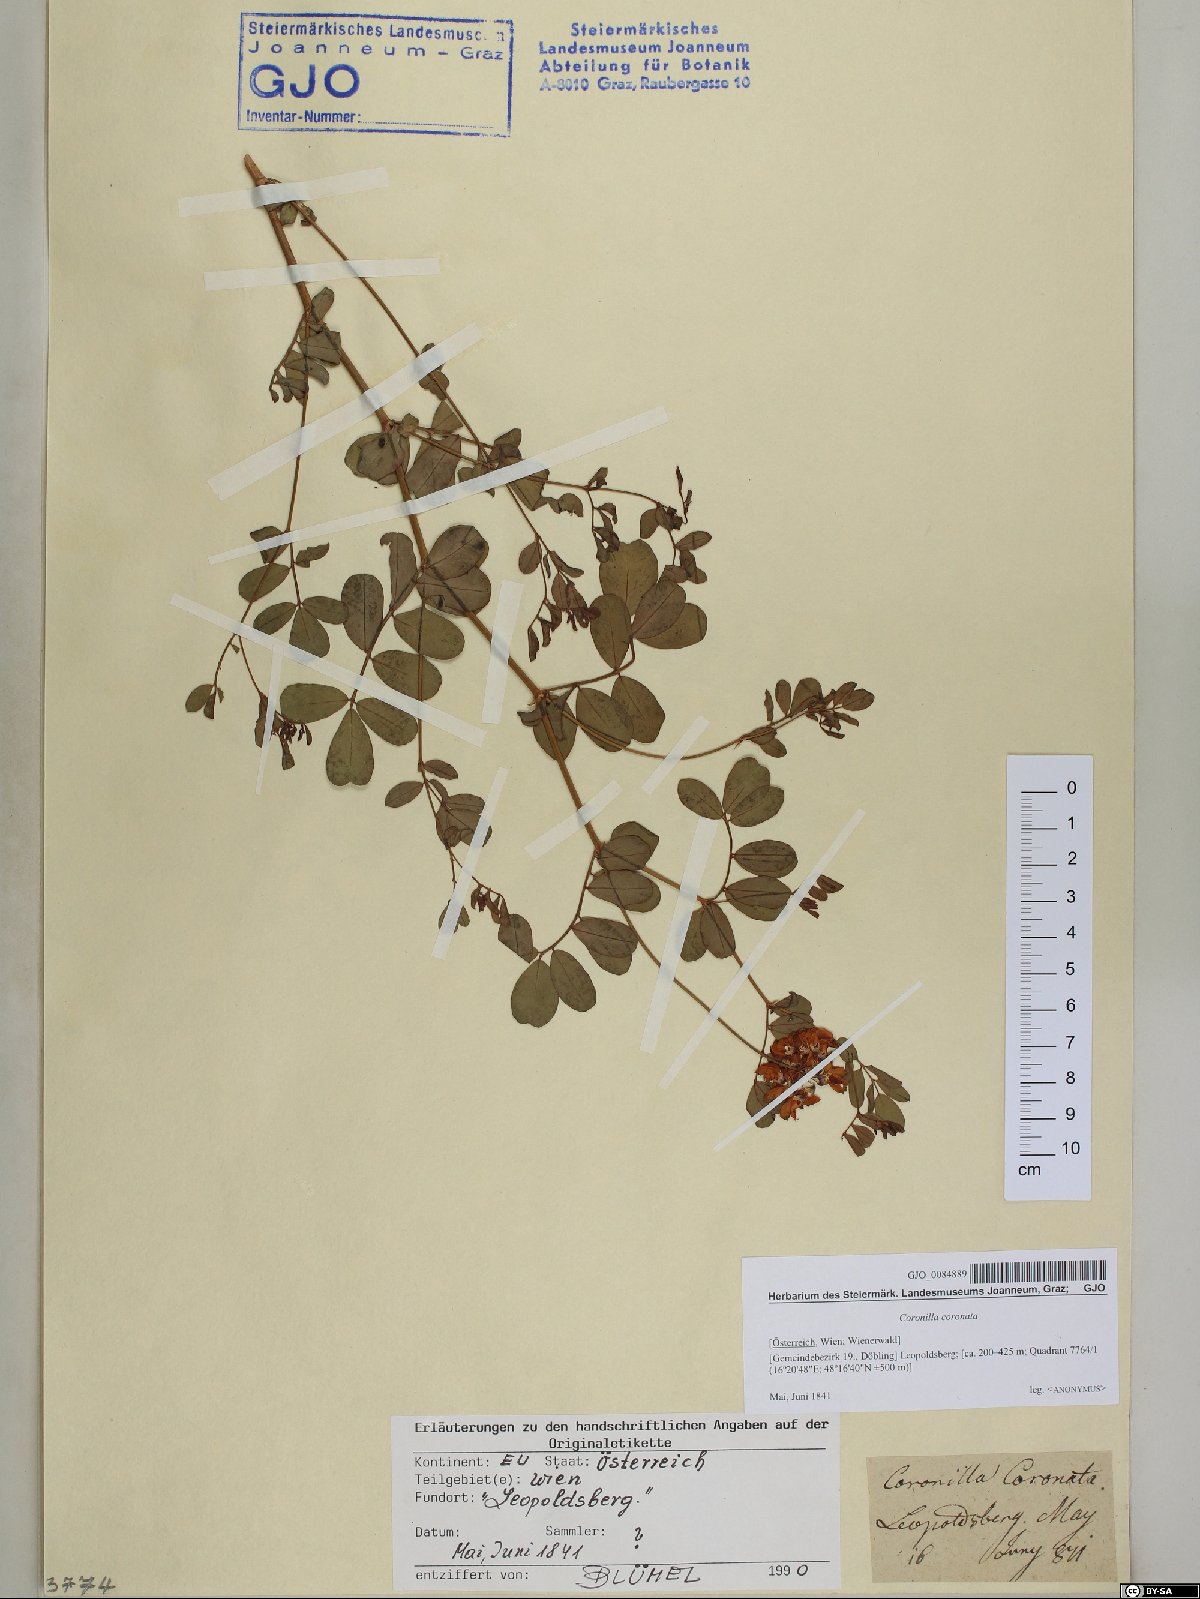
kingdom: Plantae
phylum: Tracheophyta
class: Magnoliopsida
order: Fabales
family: Fabaceae
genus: Coronilla
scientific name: Coronilla coronata
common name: Scorpion-vetch
